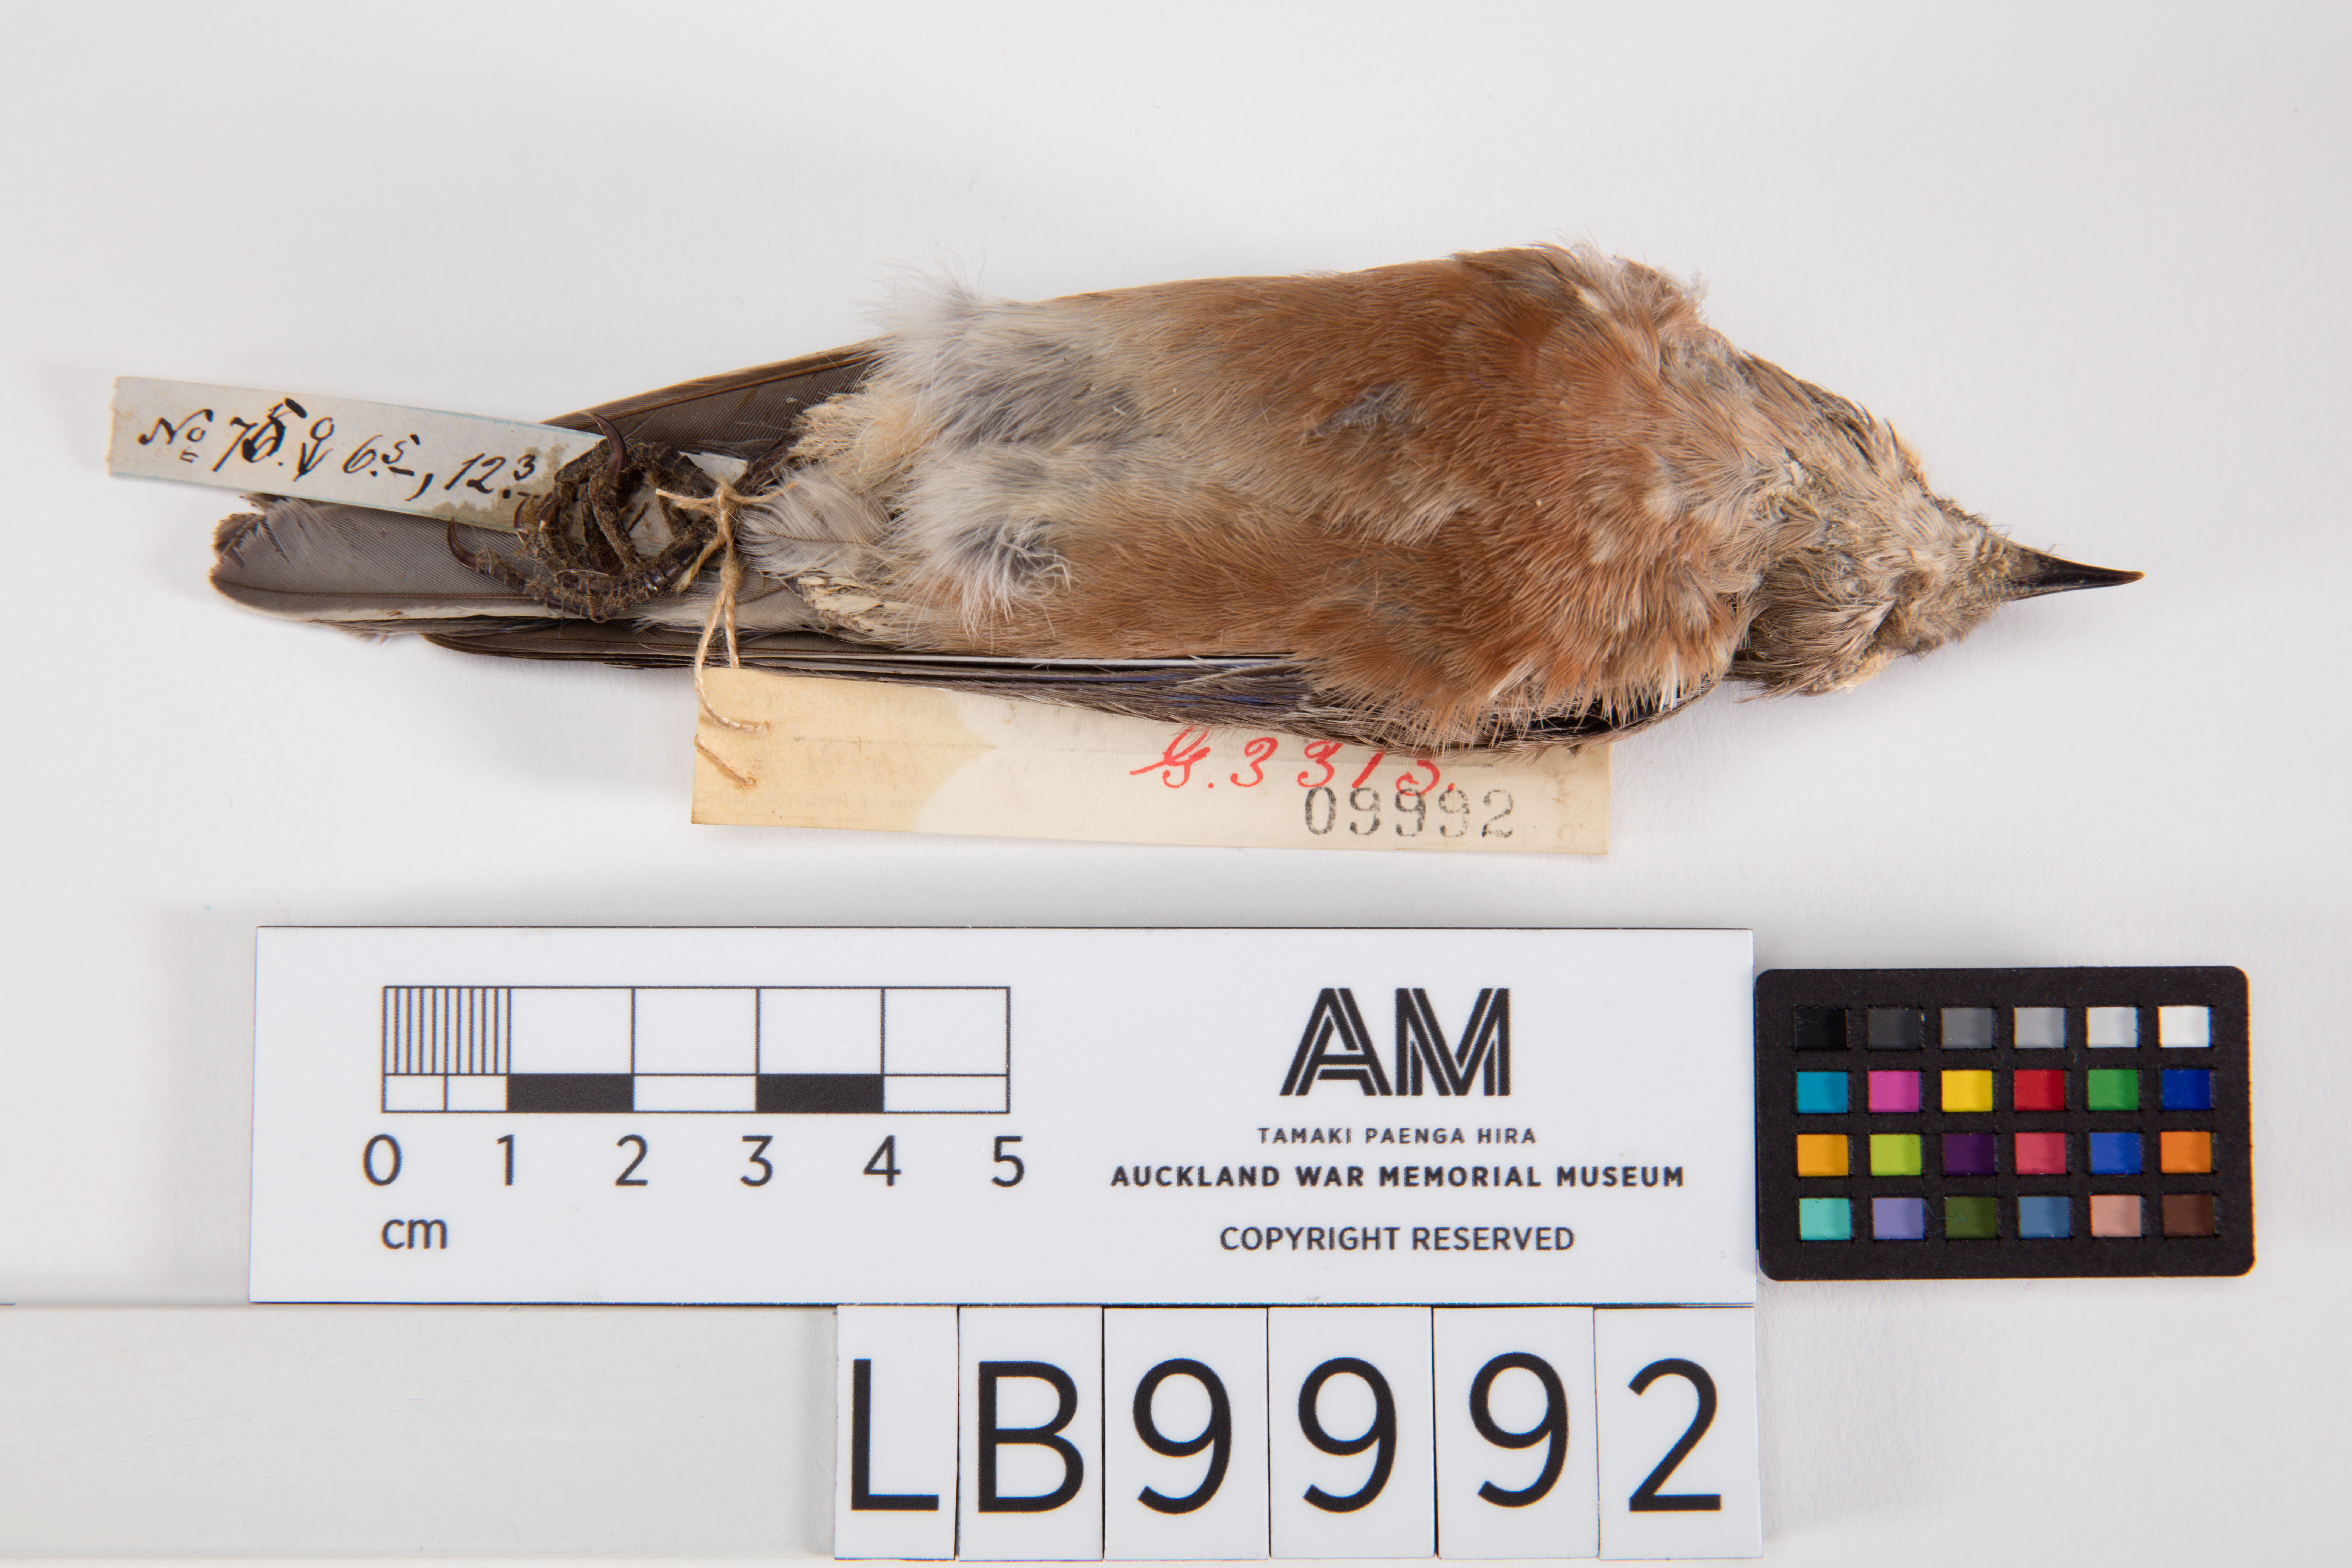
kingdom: Animalia
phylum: Chordata
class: Aves
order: Passeriformes
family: Turdidae
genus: Sialia
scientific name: Sialia mexicana
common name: Western bluebird
